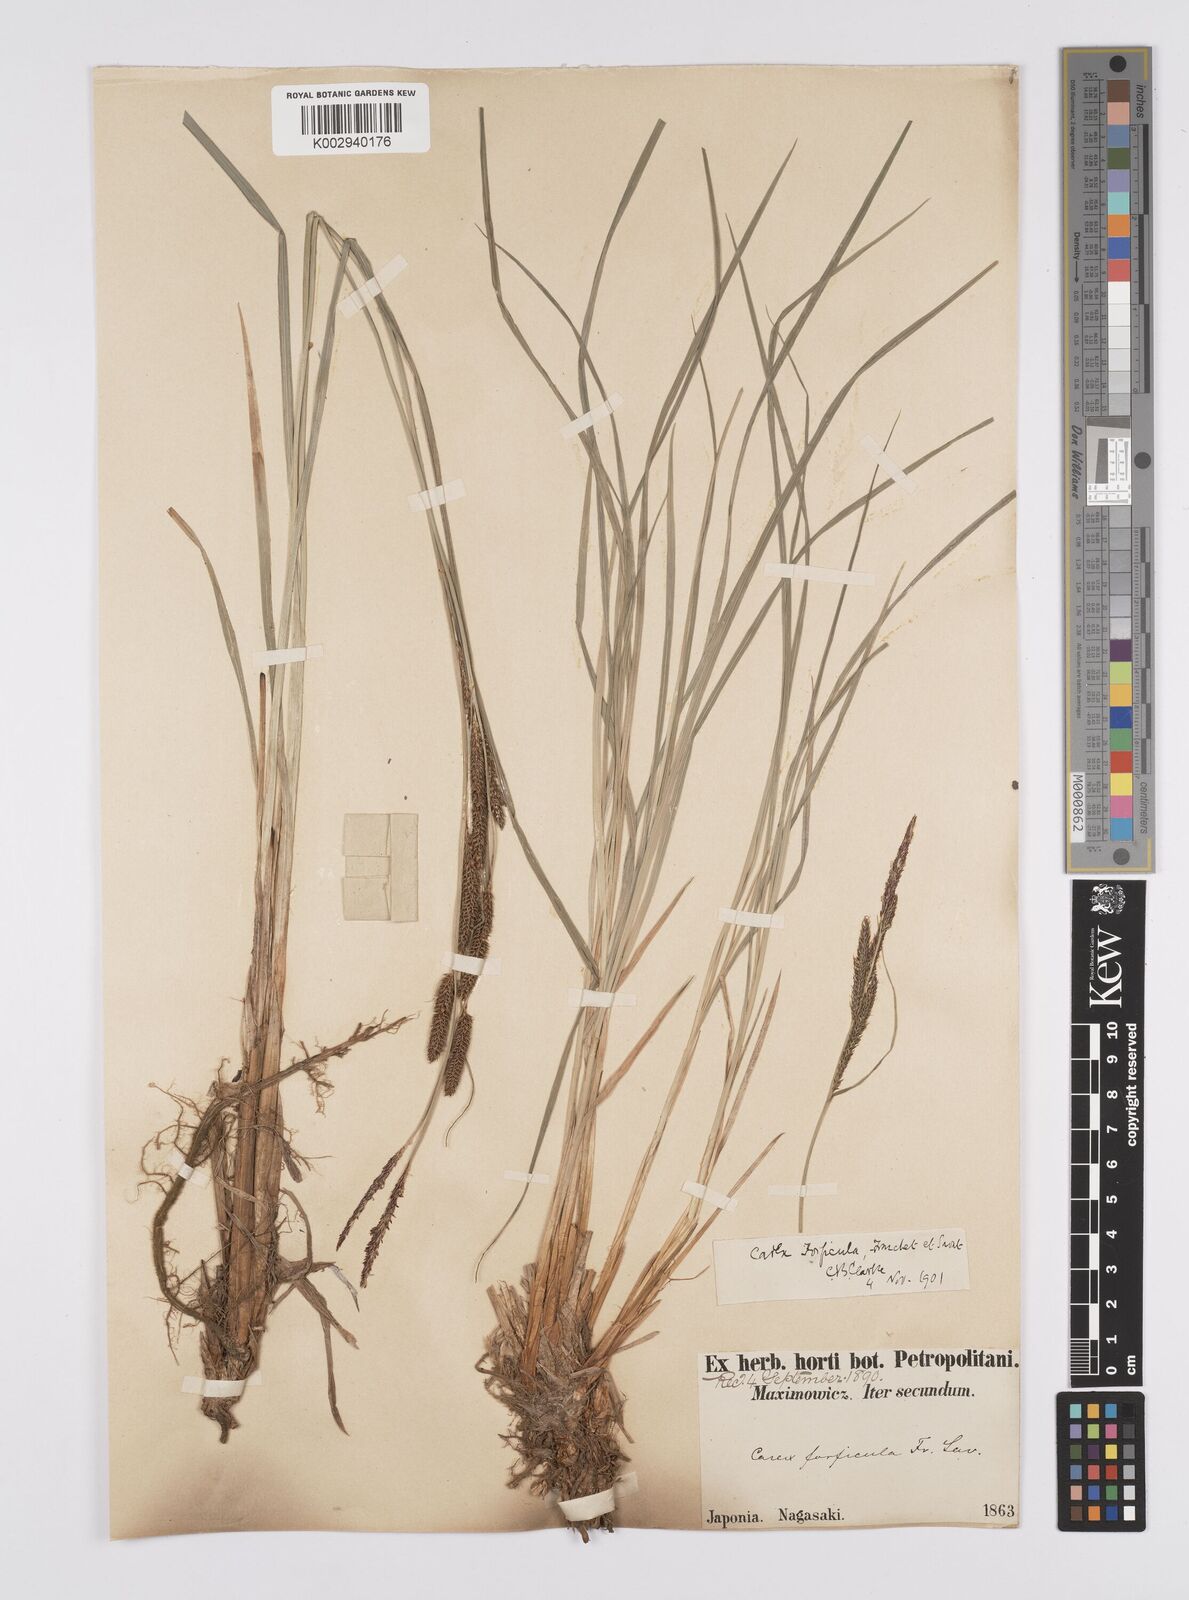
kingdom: Plantae
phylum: Tracheophyta
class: Liliopsida
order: Poales
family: Cyperaceae
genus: Carex
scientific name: Carex forficula
